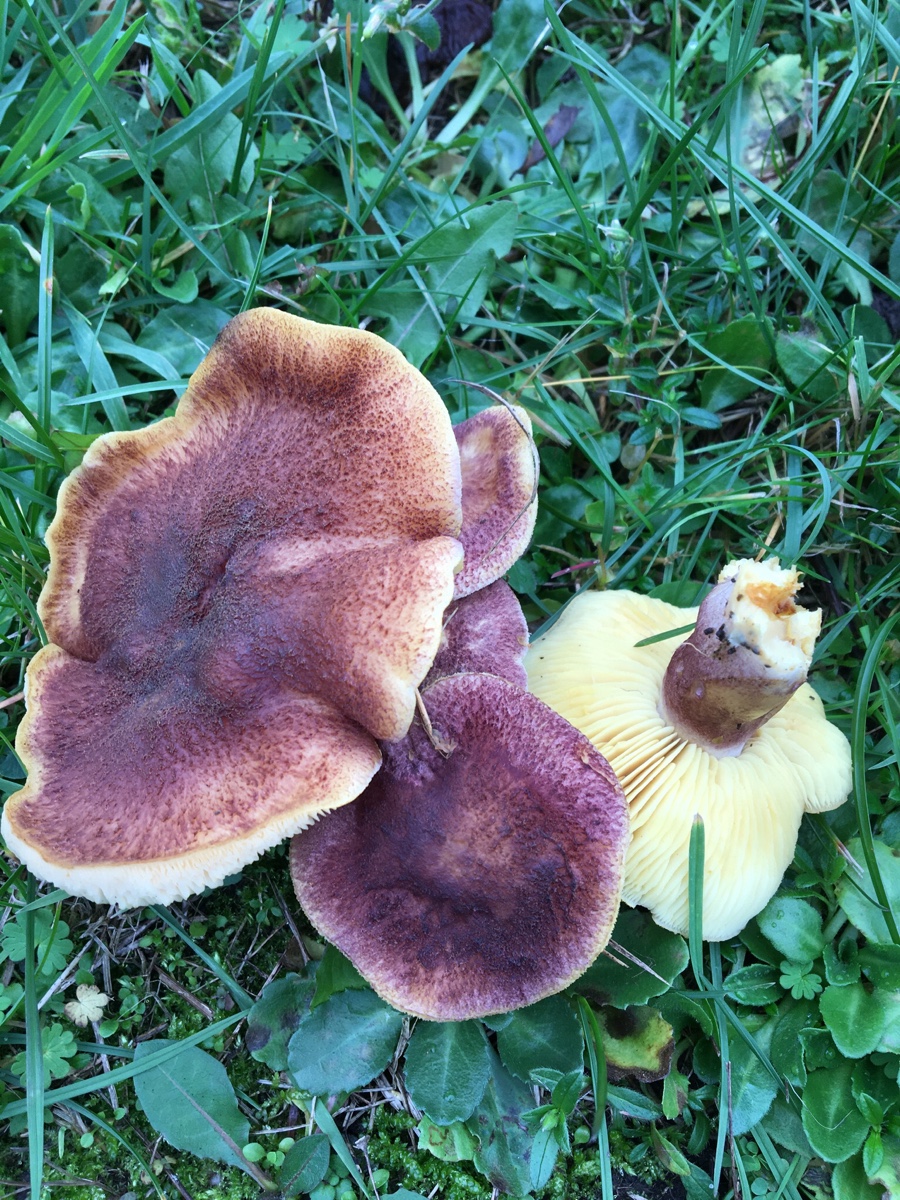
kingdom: Fungi
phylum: Basidiomycota
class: Agaricomycetes
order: Agaricales
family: Tricholomataceae
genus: Tricholomopsis
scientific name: Tricholomopsis rutilans
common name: purpur-væbnerhat
